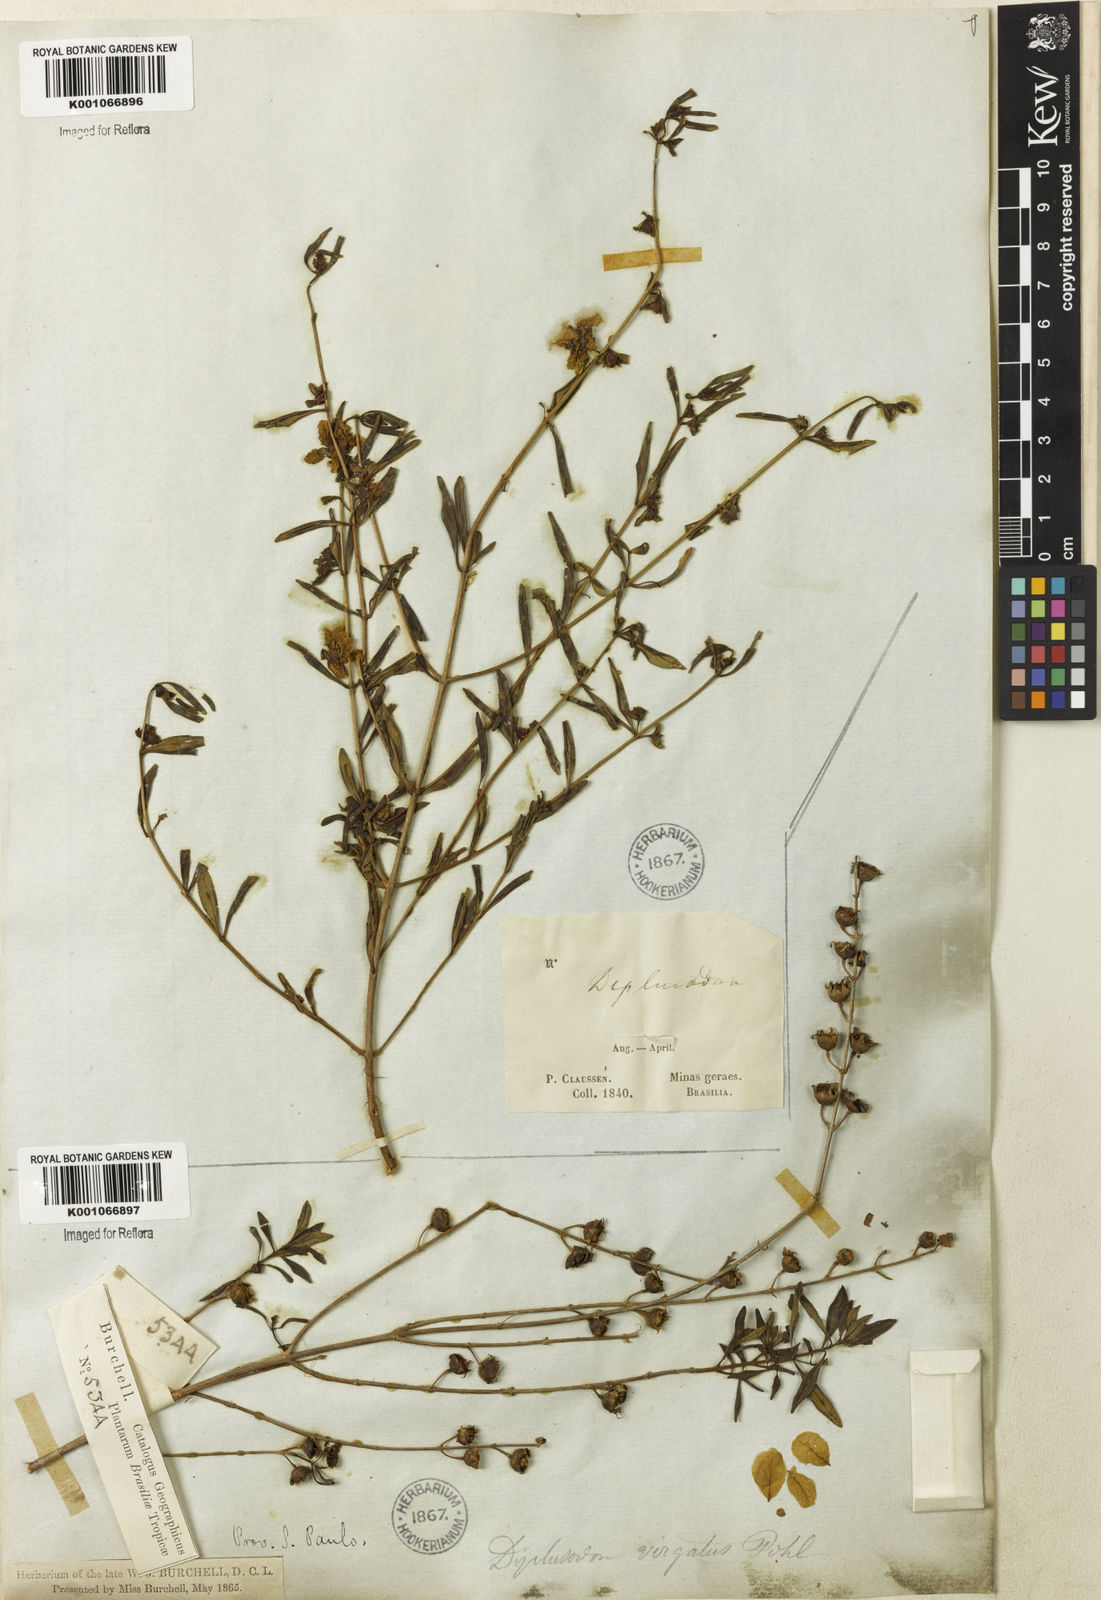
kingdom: Plantae
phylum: Tracheophyta
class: Magnoliopsida
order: Myrtales
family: Lythraceae
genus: Diplusodon
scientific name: Diplusodon virgatus
